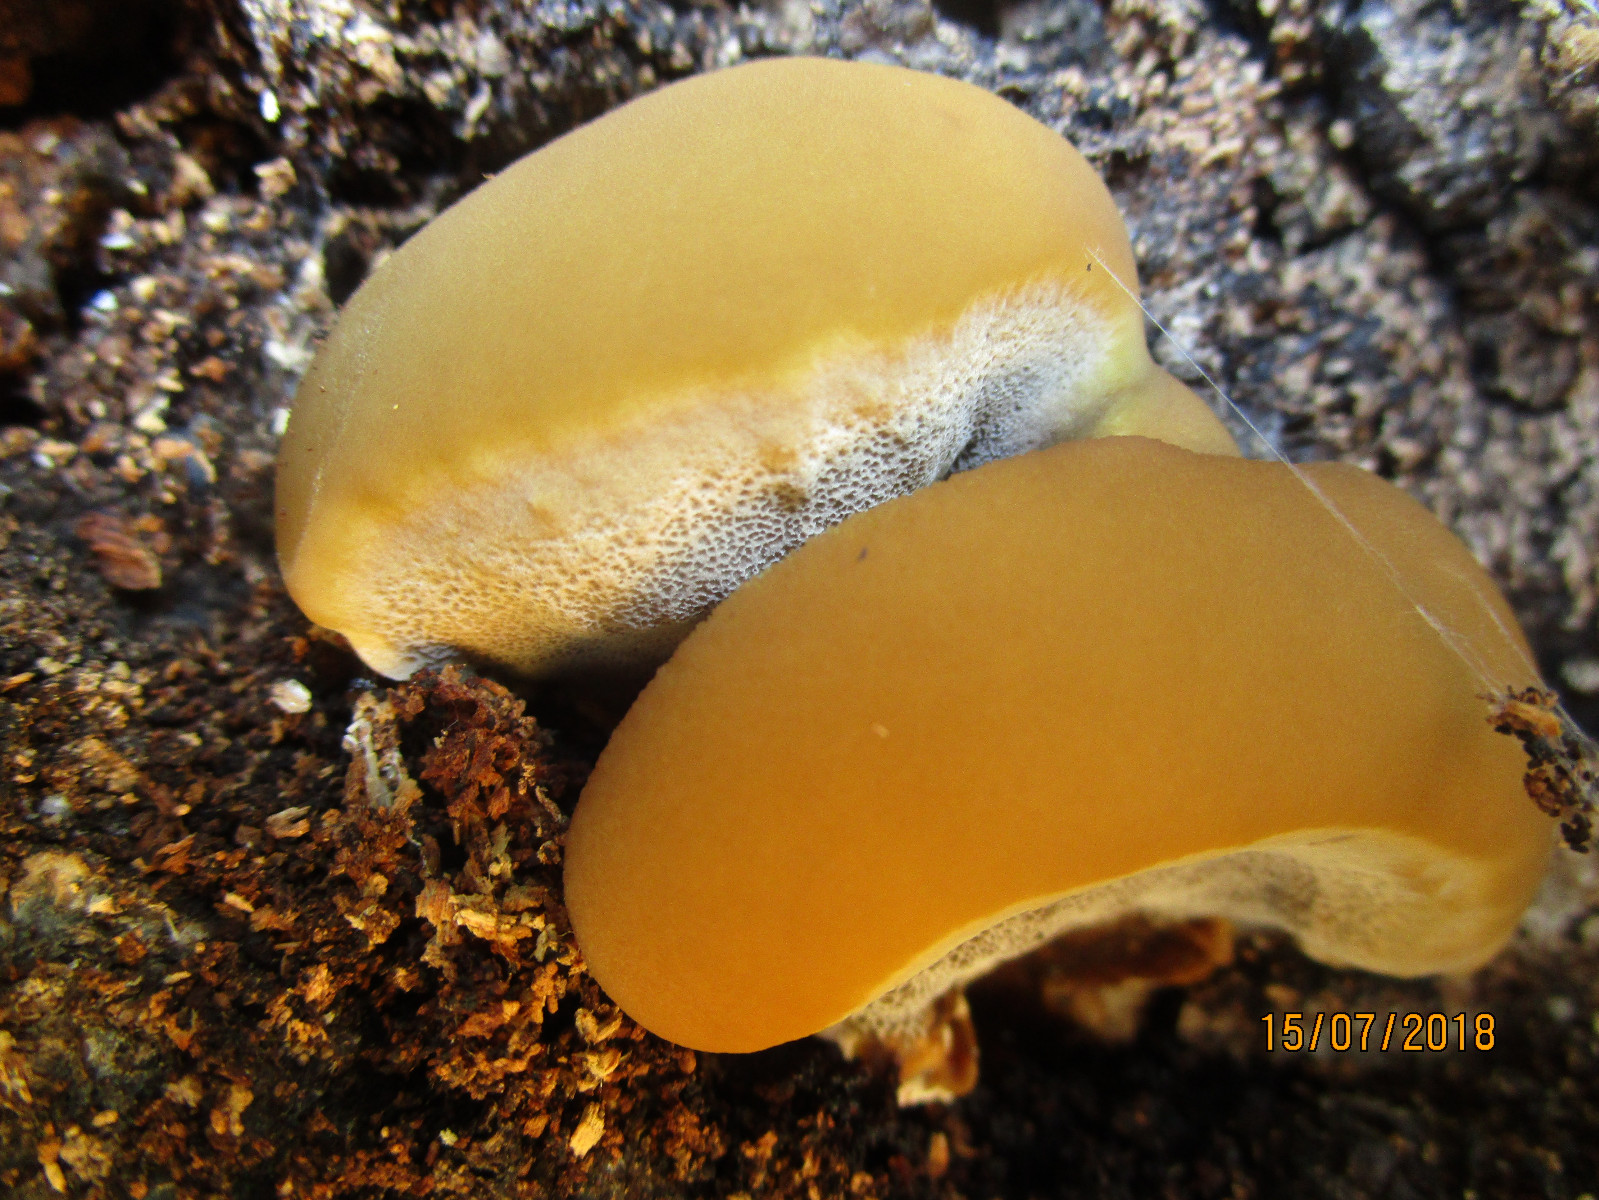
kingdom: Fungi
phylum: Basidiomycota
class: Agaricomycetes
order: Hymenochaetales
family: Hymenochaetaceae
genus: Inonotus
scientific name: Inonotus cuticularis
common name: kroghåret spejlporesvamp
